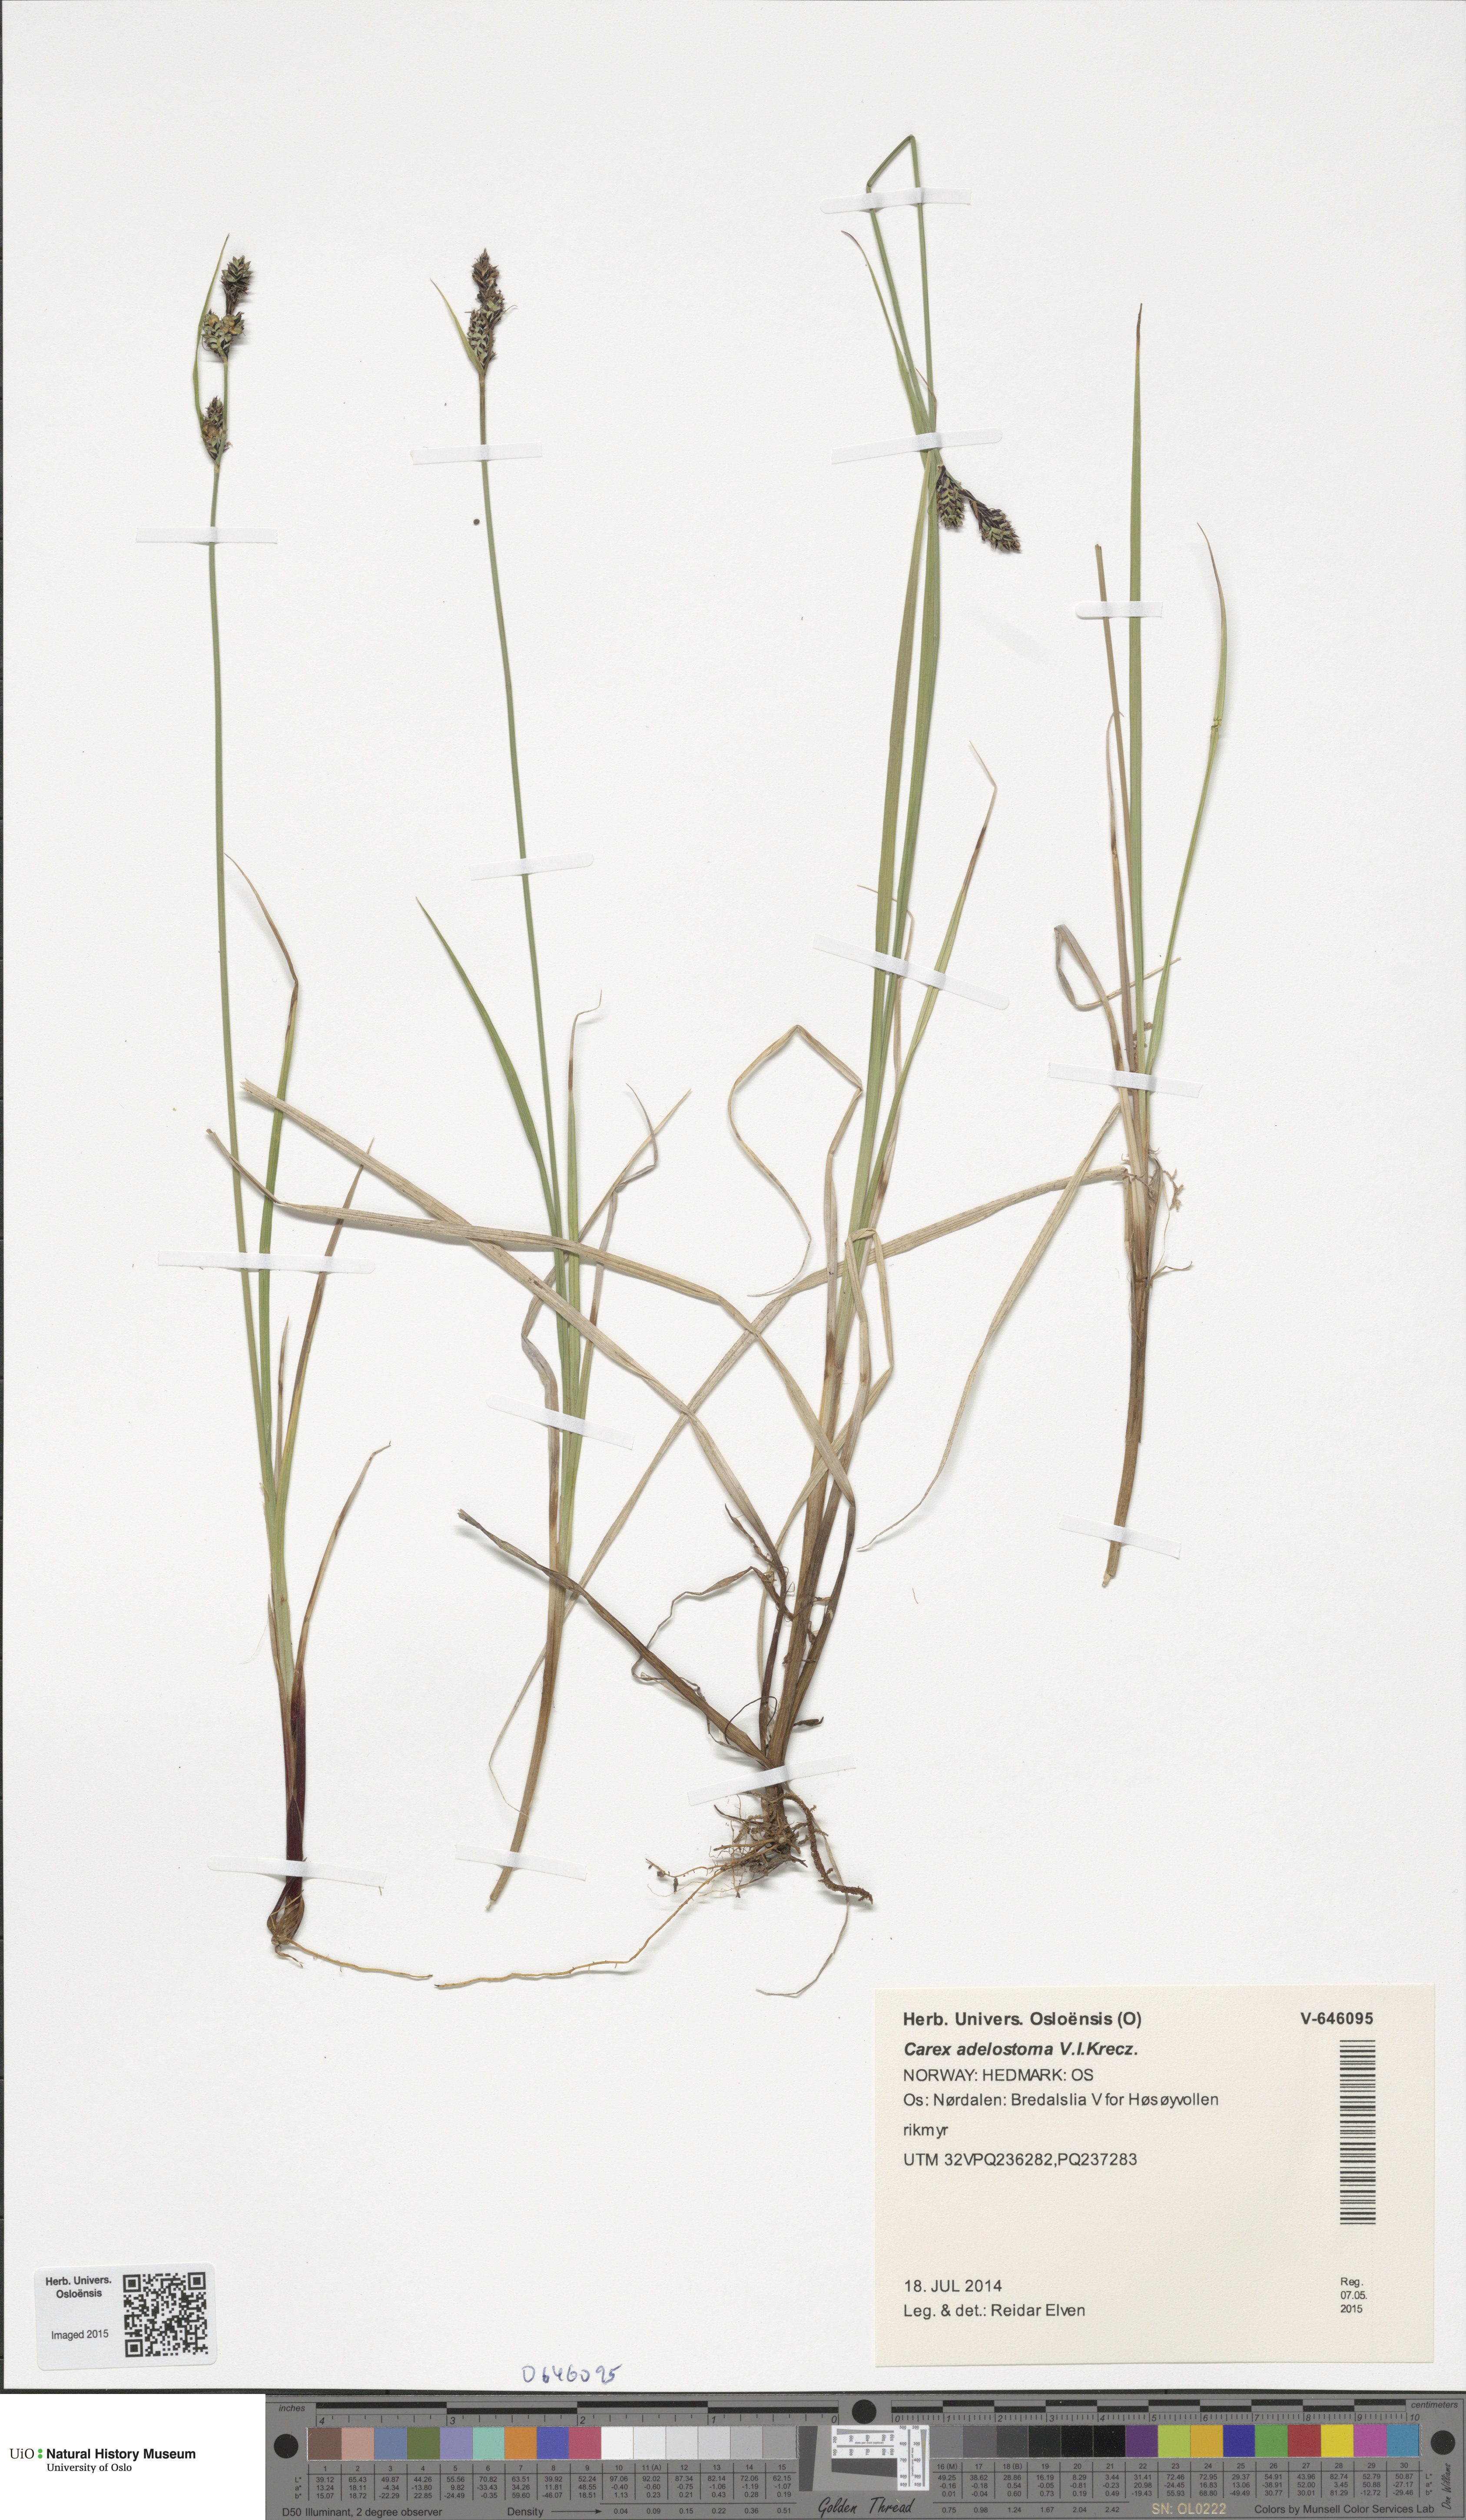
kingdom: Plantae
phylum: Tracheophyta
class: Liliopsida
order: Poales
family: Cyperaceae
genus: Carex
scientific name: Carex adelostoma
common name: Circumpolar sedge
